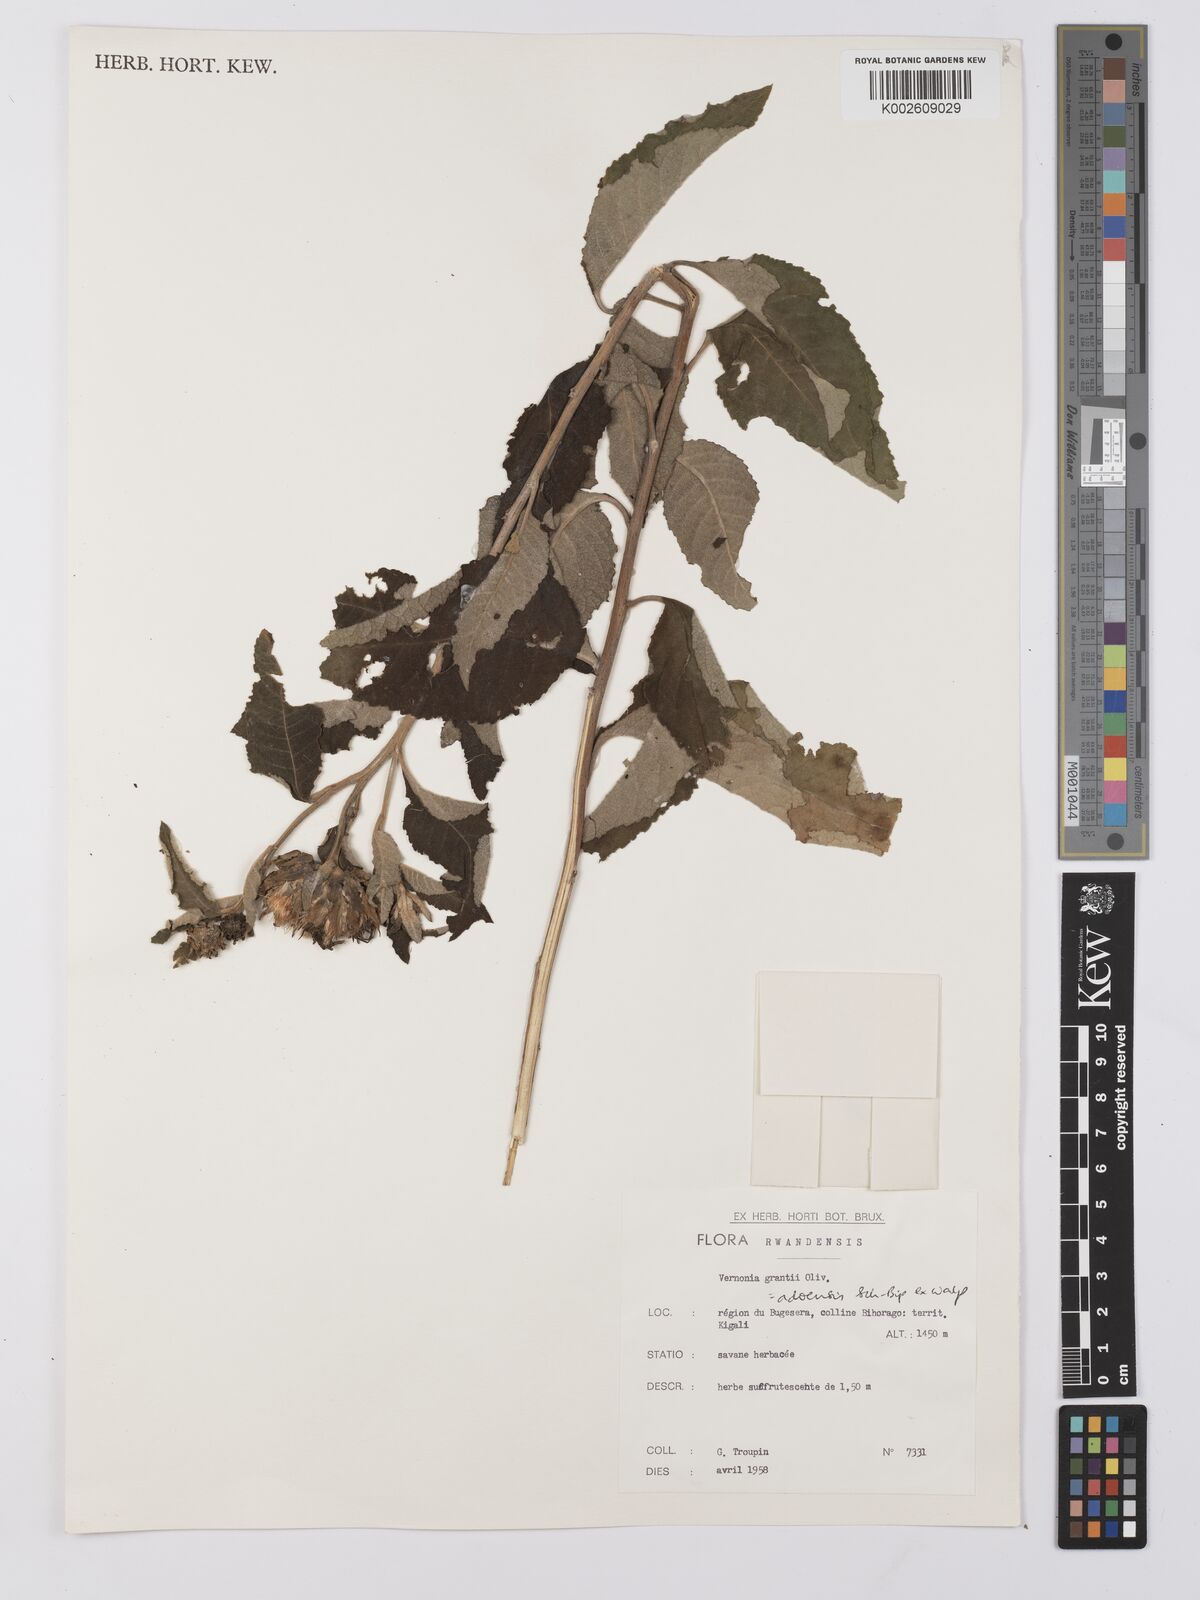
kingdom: Plantae
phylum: Tracheophyta
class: Magnoliopsida
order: Asterales
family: Asteraceae
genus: Baccharoides
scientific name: Baccharoides adoensis
